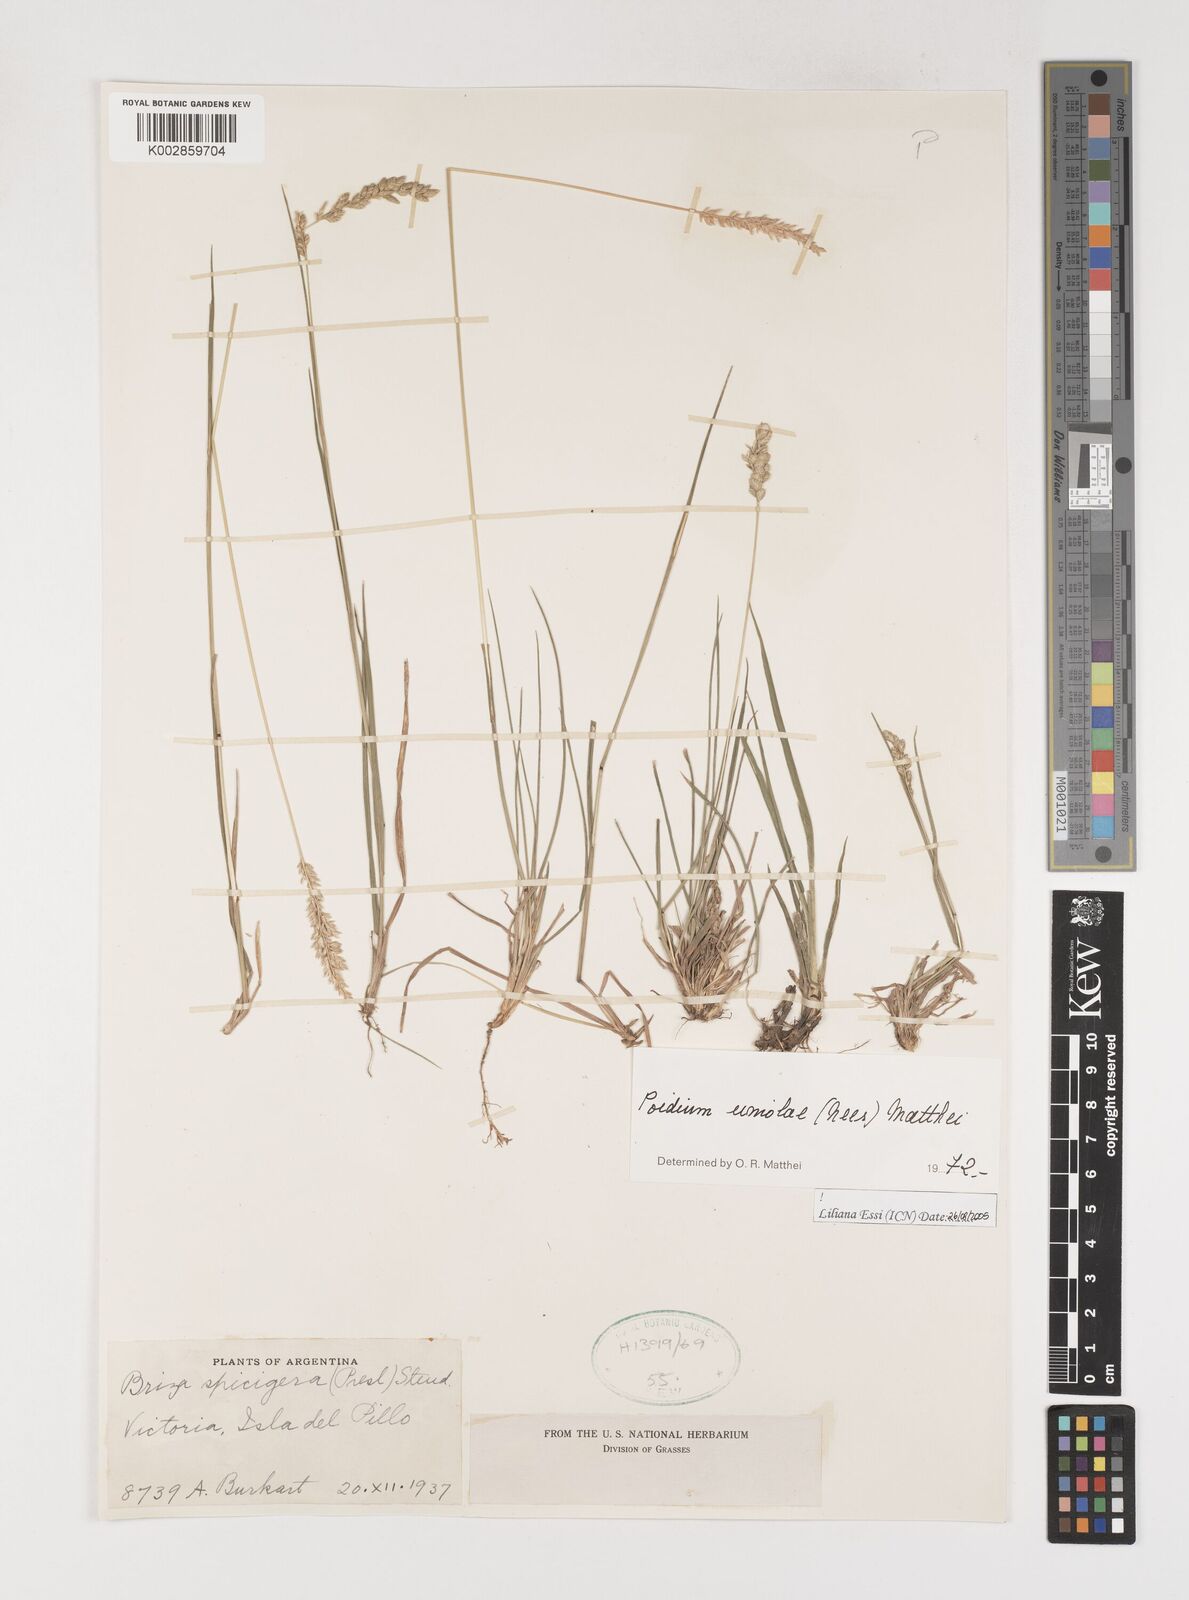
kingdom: Plantae
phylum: Tracheophyta
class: Liliopsida
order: Poales
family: Poaceae
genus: Poidium
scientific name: Poidium uniolae
